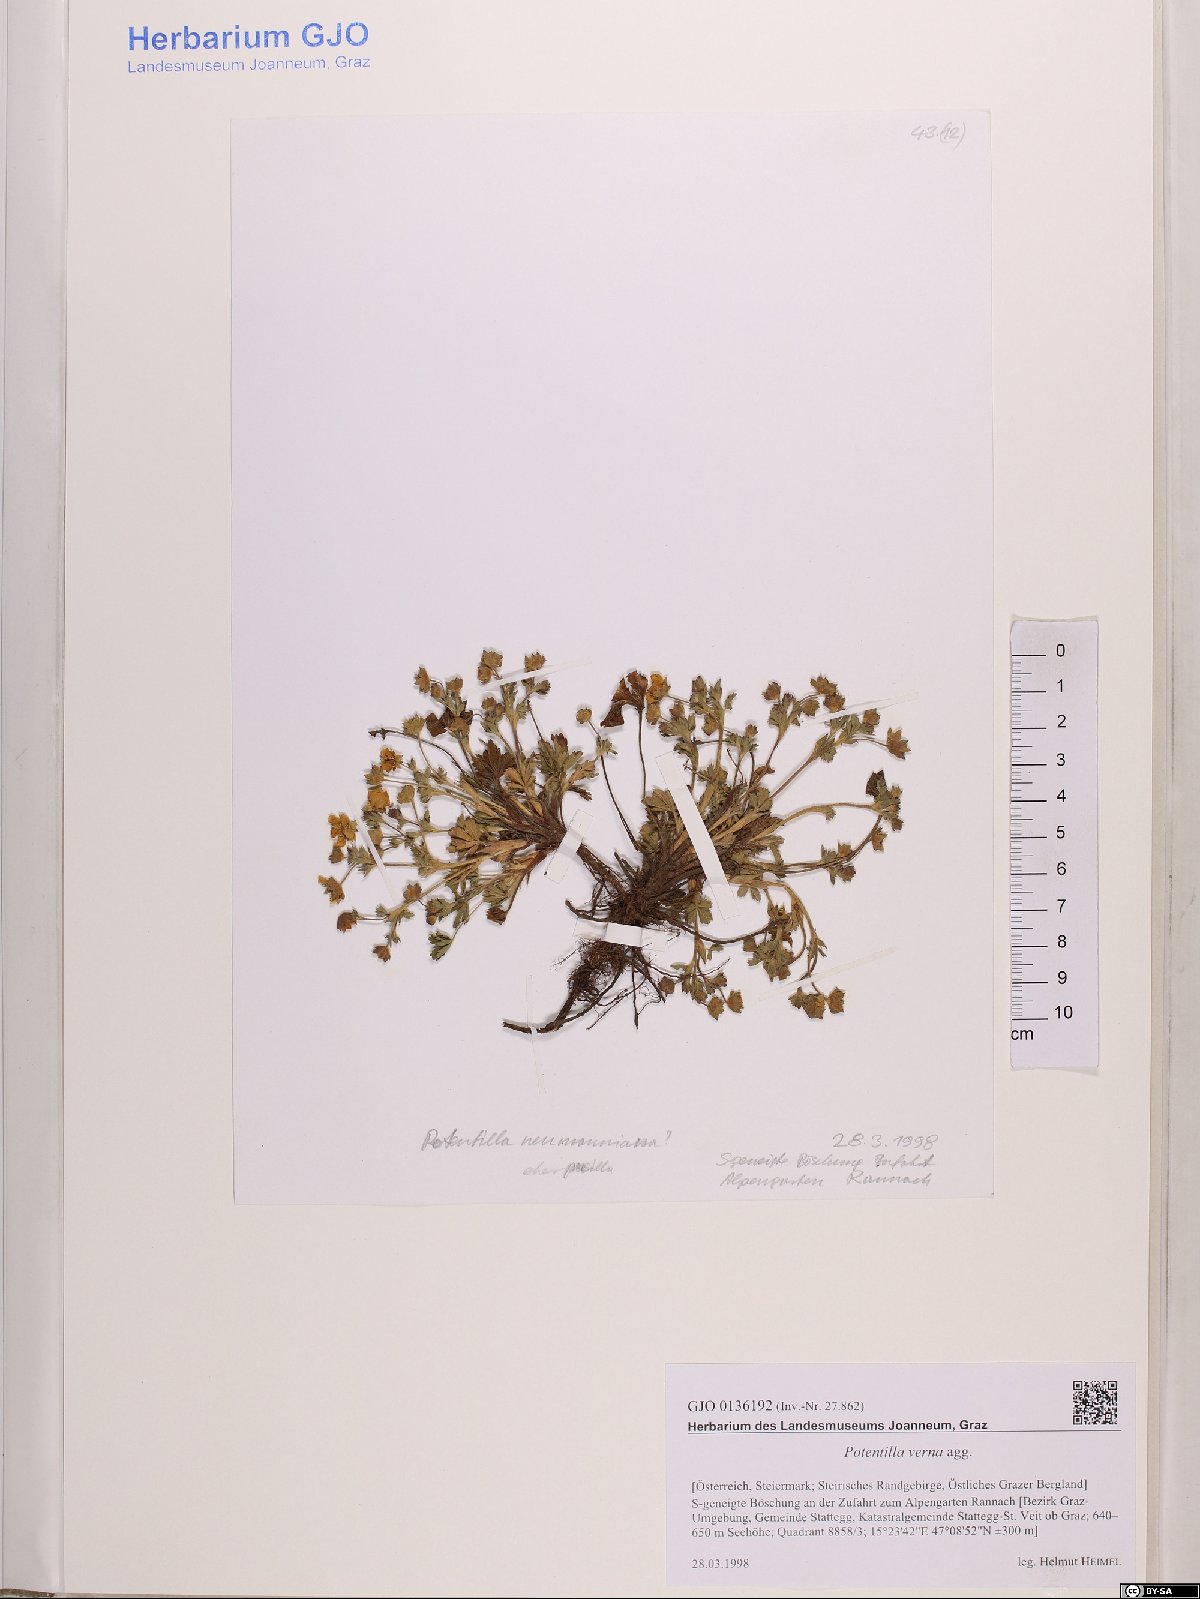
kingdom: Plantae
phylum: Tracheophyta
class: Magnoliopsida
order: Rosales
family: Rosaceae
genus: Potentilla
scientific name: Potentilla verna
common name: Spring cinquefoil
